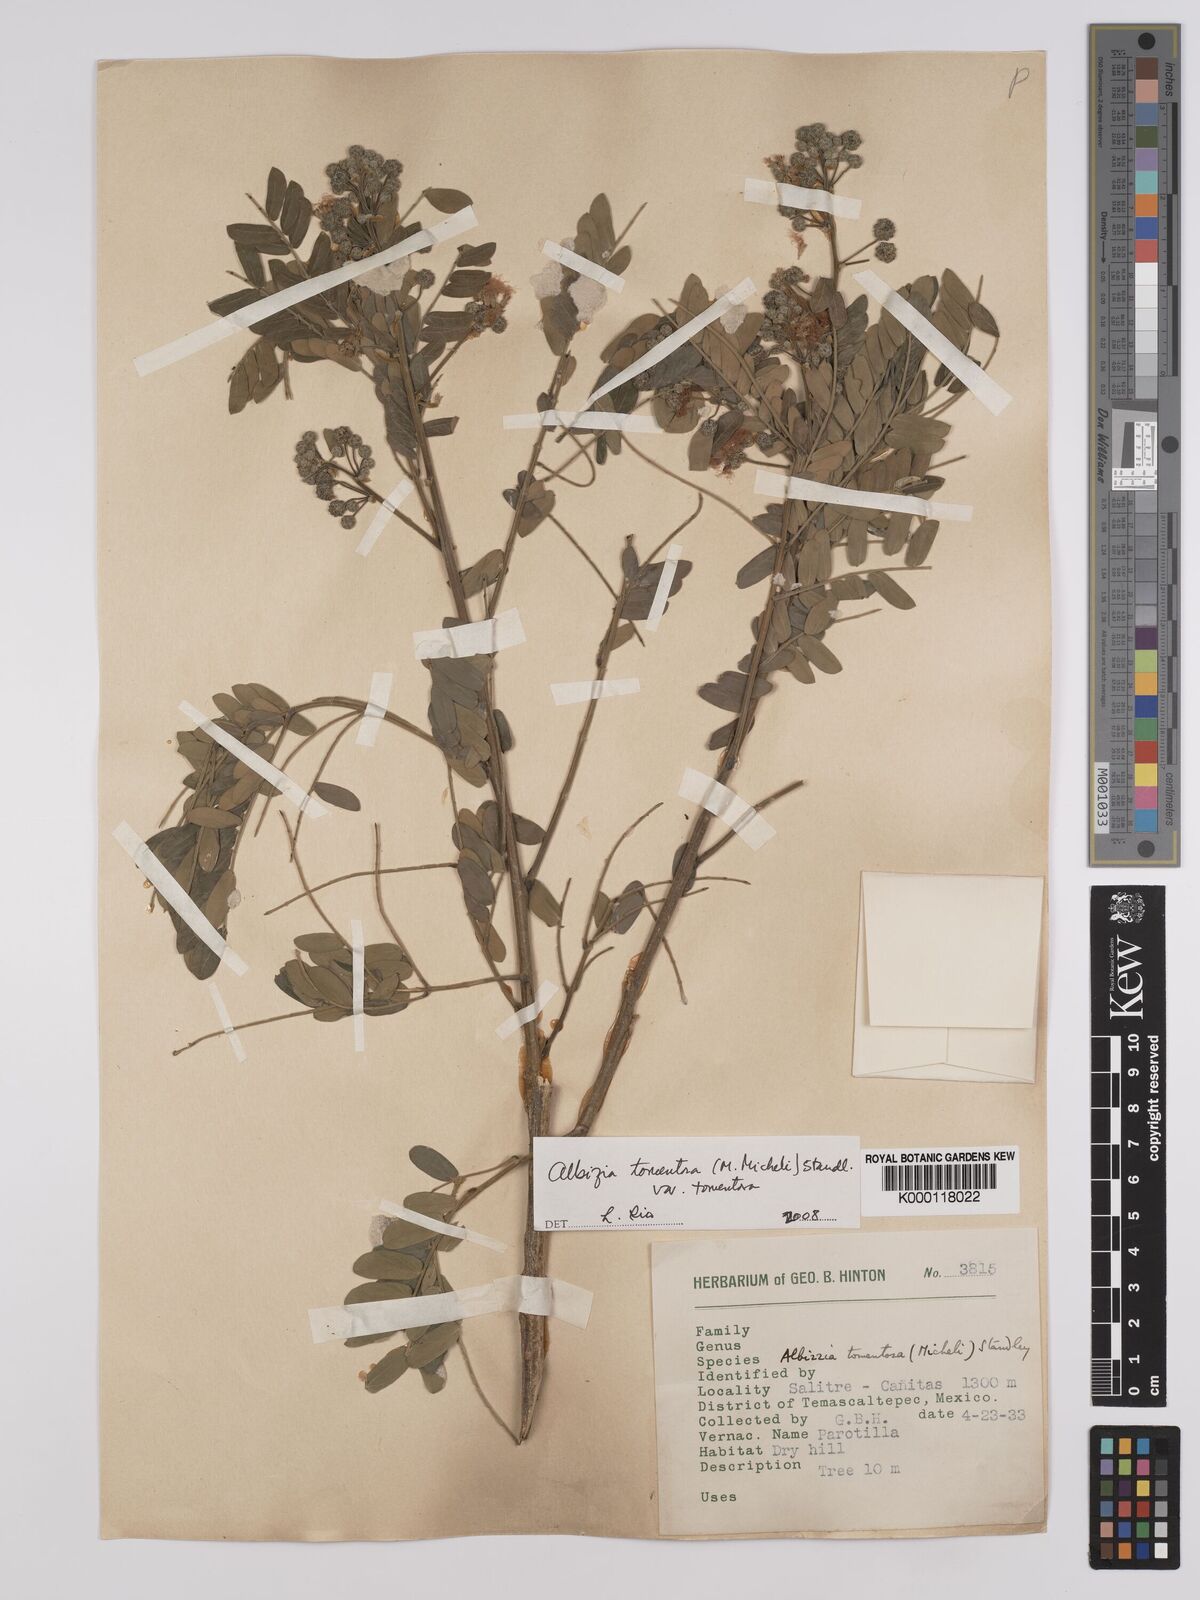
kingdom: Plantae
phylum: Tracheophyta
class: Magnoliopsida
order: Fabales
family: Fabaceae
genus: Albizia
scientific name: Albizia tomentosa
